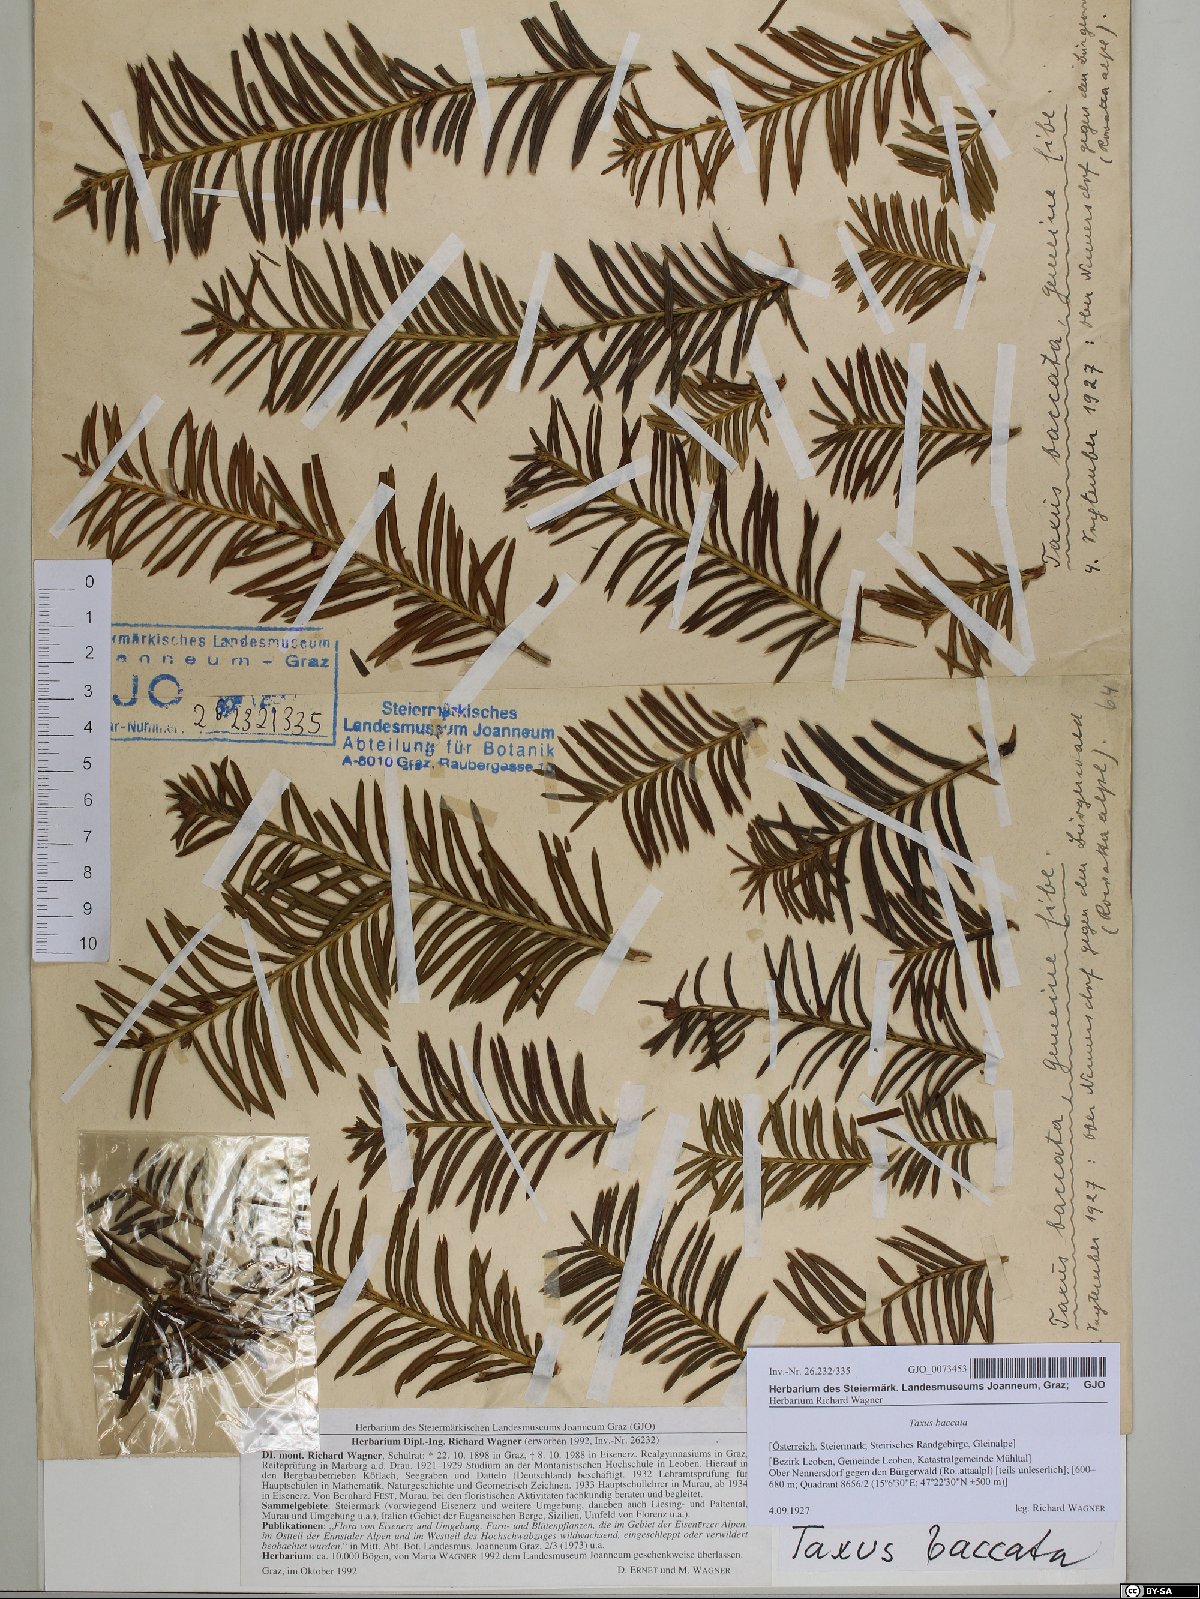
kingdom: Plantae
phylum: Tracheophyta
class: Pinopsida
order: Pinales
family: Taxaceae
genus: Taxus
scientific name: Taxus baccata
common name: Yew
